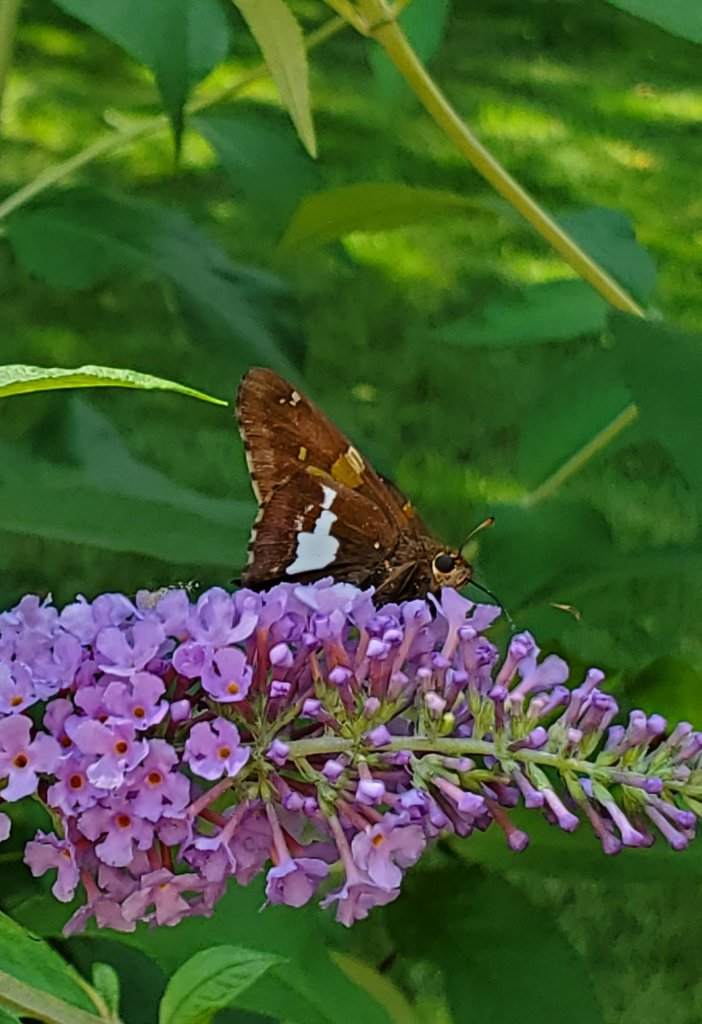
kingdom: Animalia
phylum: Arthropoda
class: Insecta
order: Lepidoptera
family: Hesperiidae
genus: Epargyreus
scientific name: Epargyreus clarus
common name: Silver-spotted Skipper
